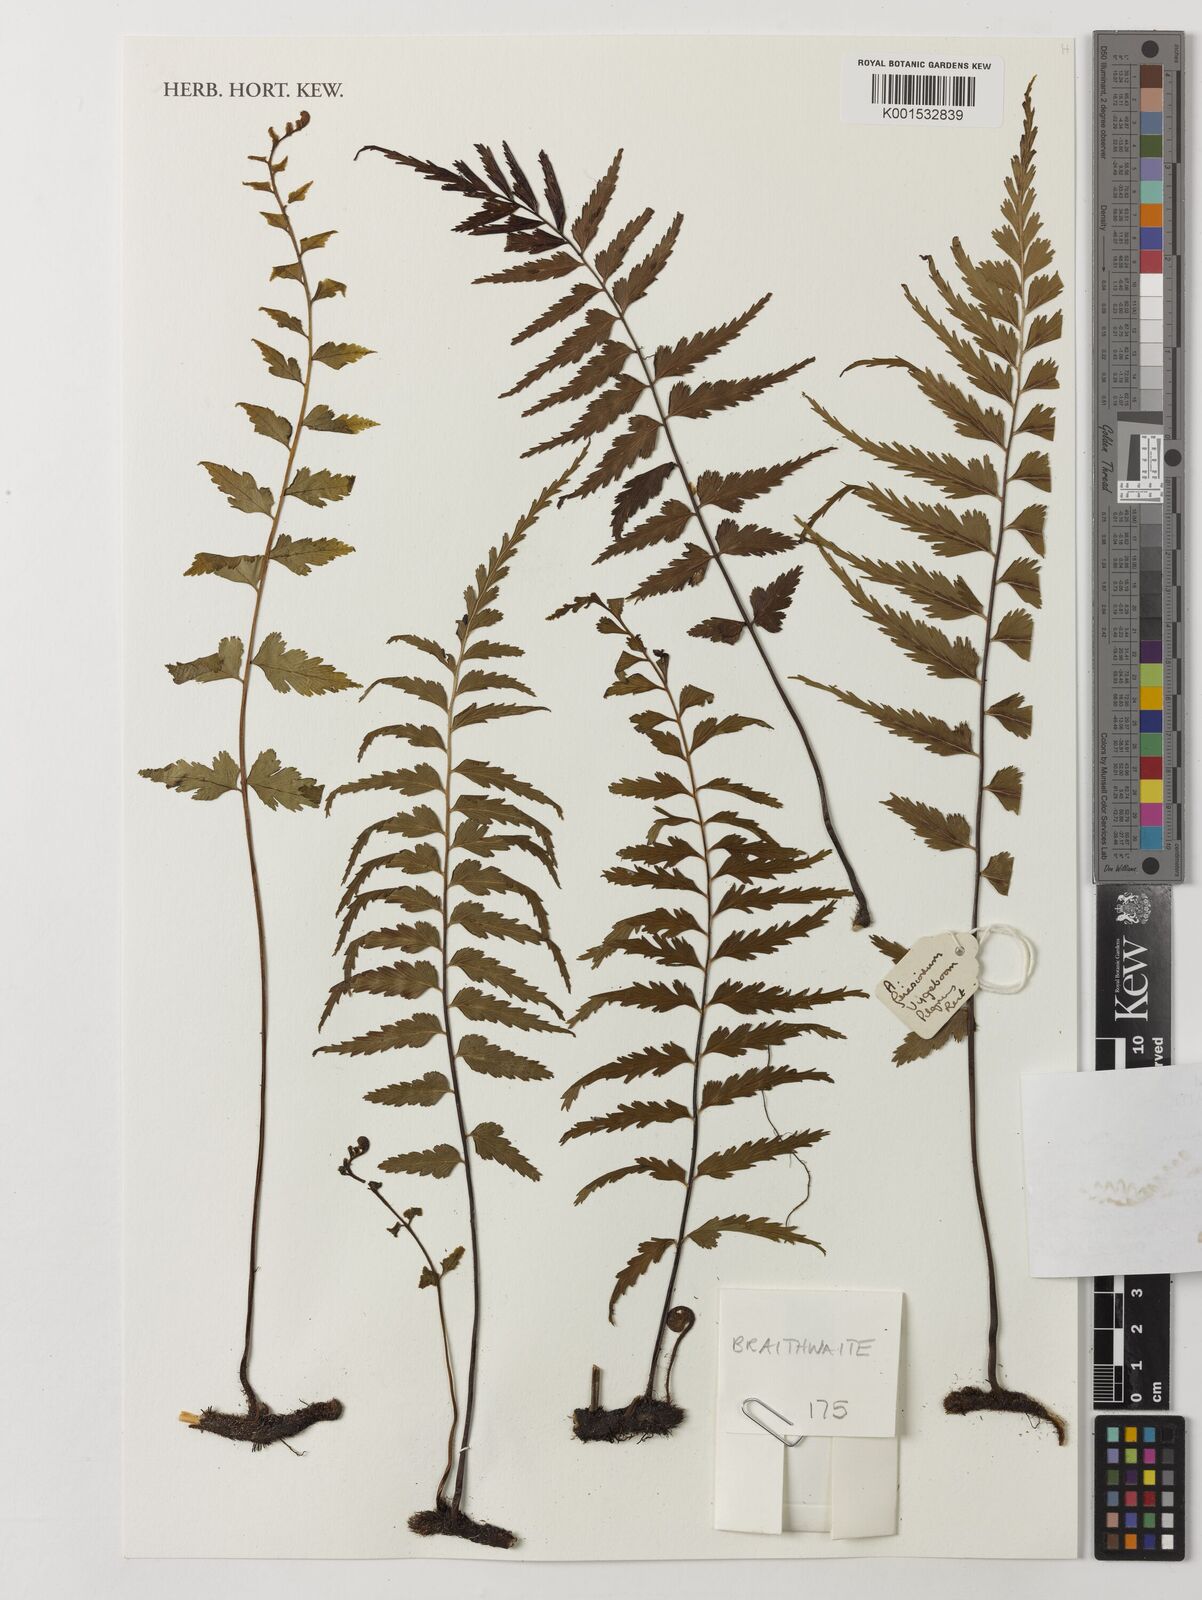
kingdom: Plantae
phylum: Tracheophyta
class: Polypodiopsida
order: Polypodiales
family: Aspleniaceae
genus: Asplenium
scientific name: Asplenium gueinzianum
